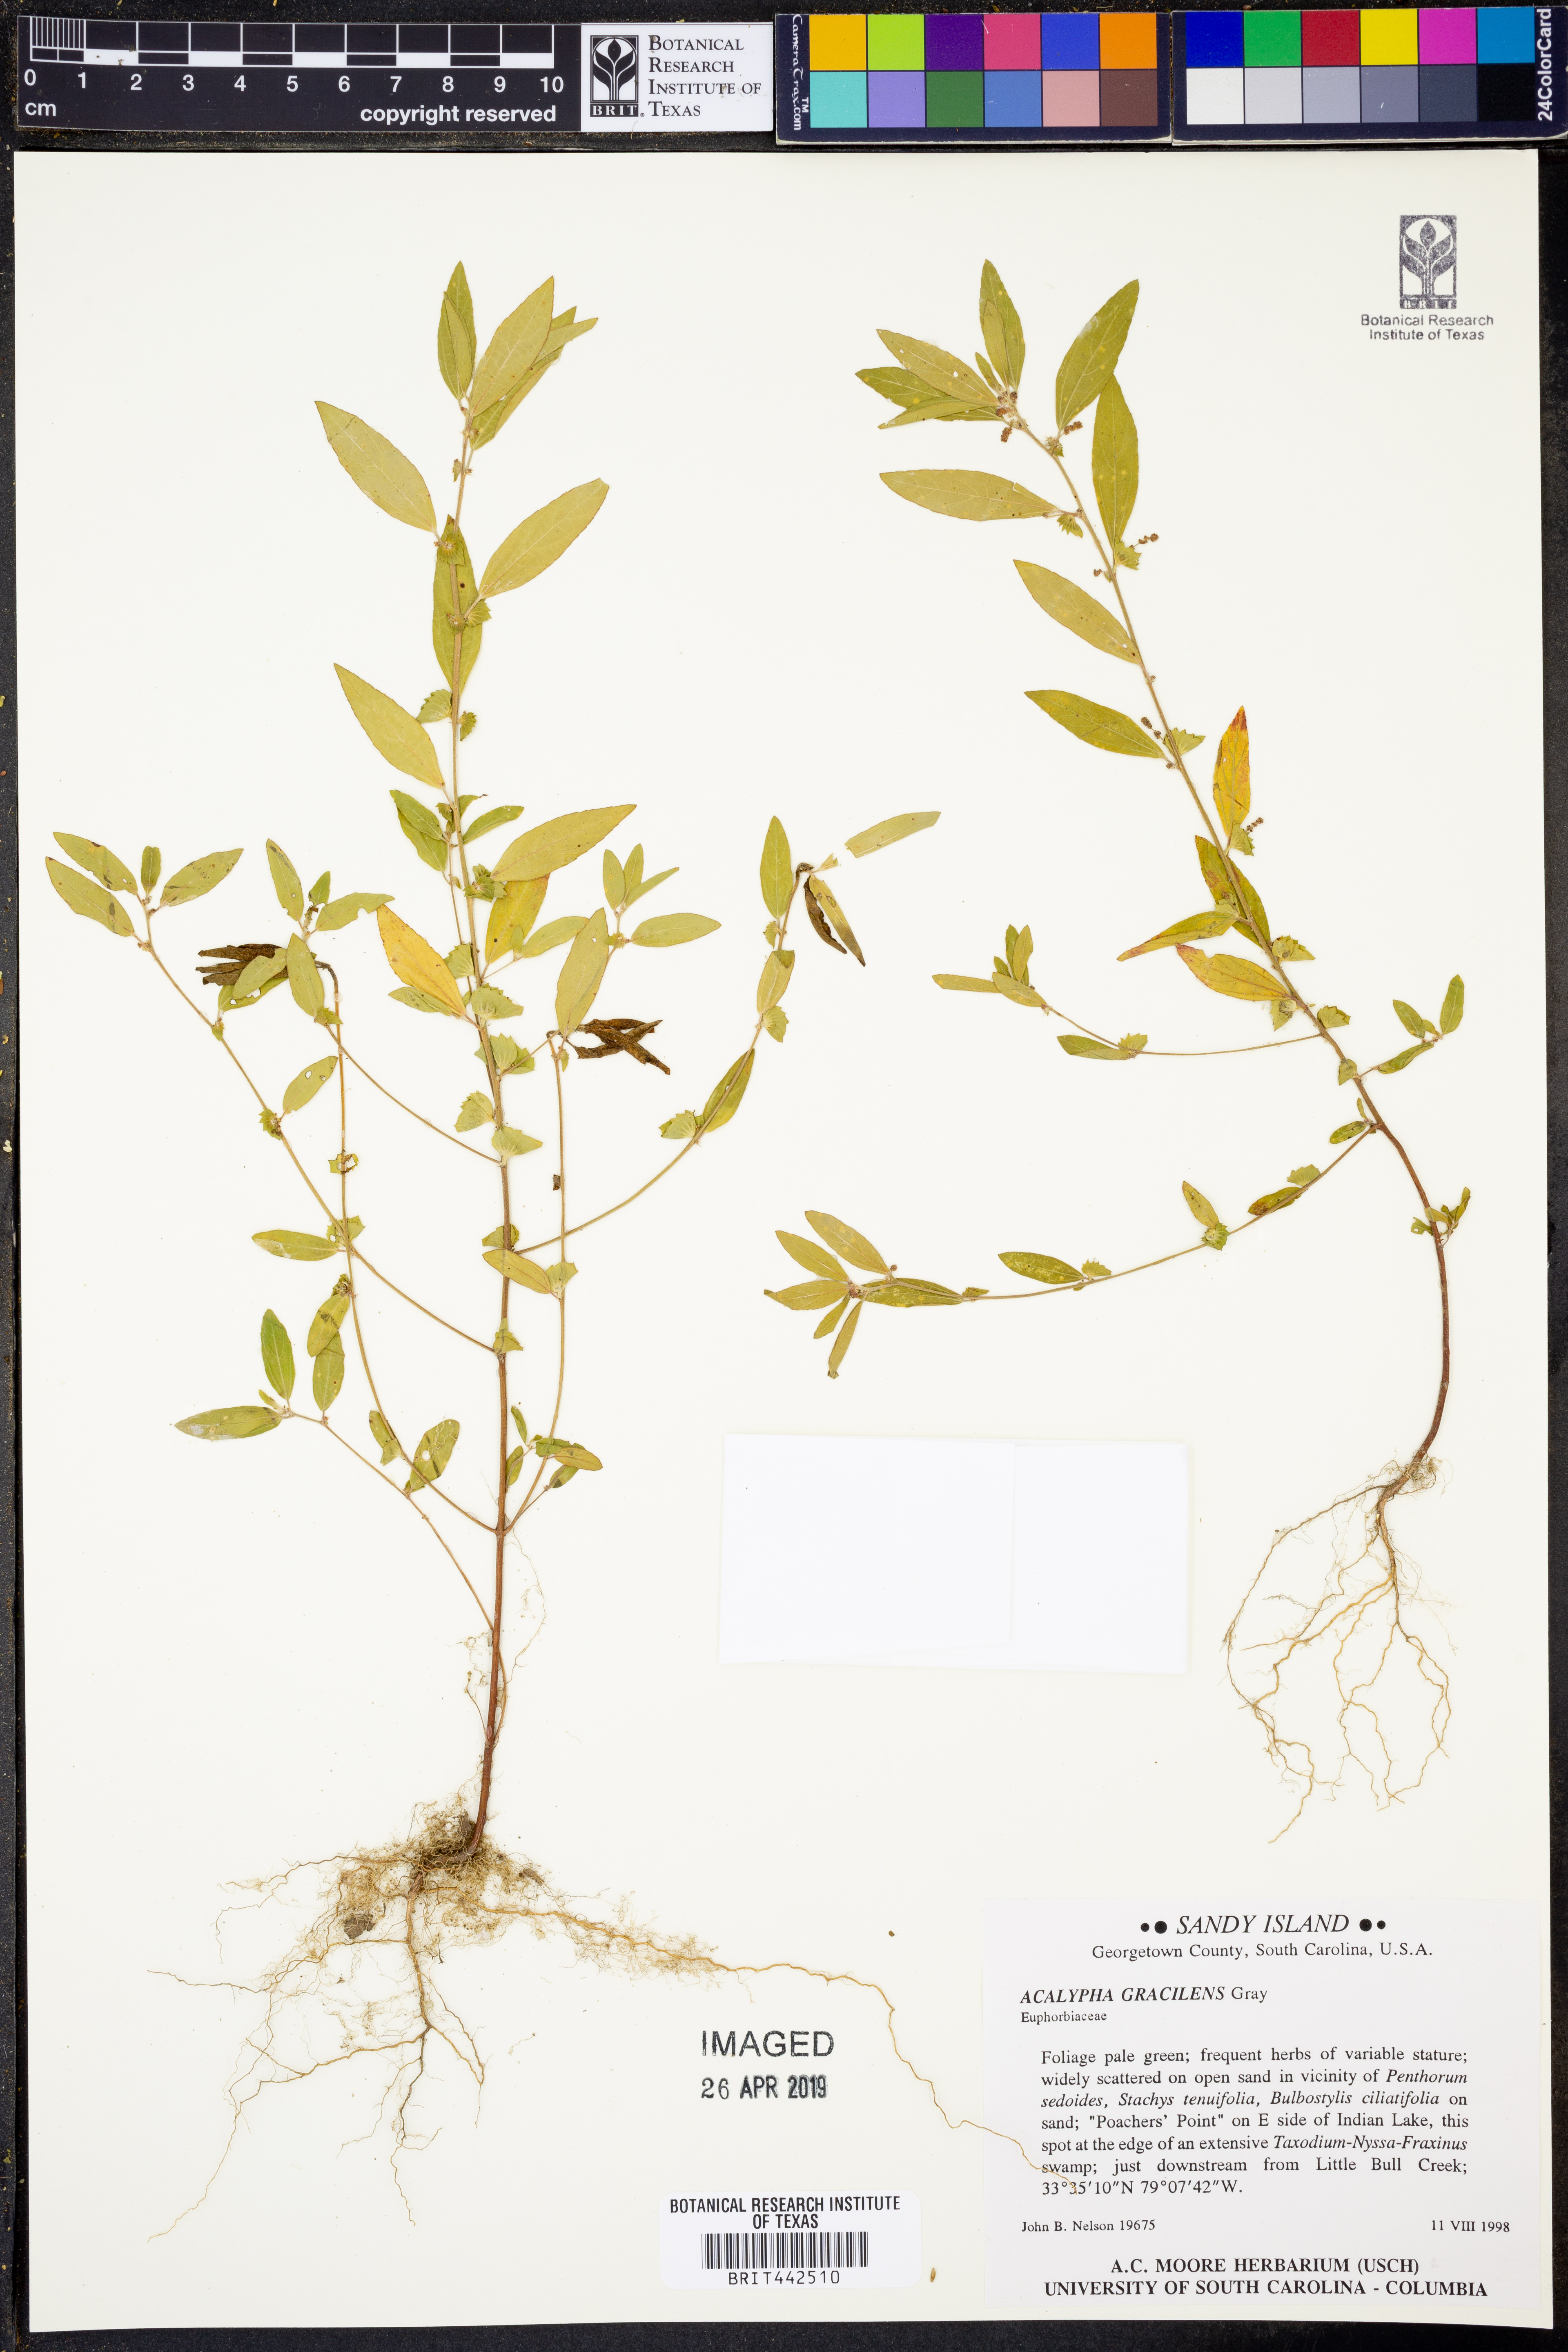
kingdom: Plantae
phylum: Tracheophyta
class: Magnoliopsida
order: Malpighiales
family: Euphorbiaceae
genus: Acalypha
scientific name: Acalypha gracilens
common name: Slender three-seeded mercury
